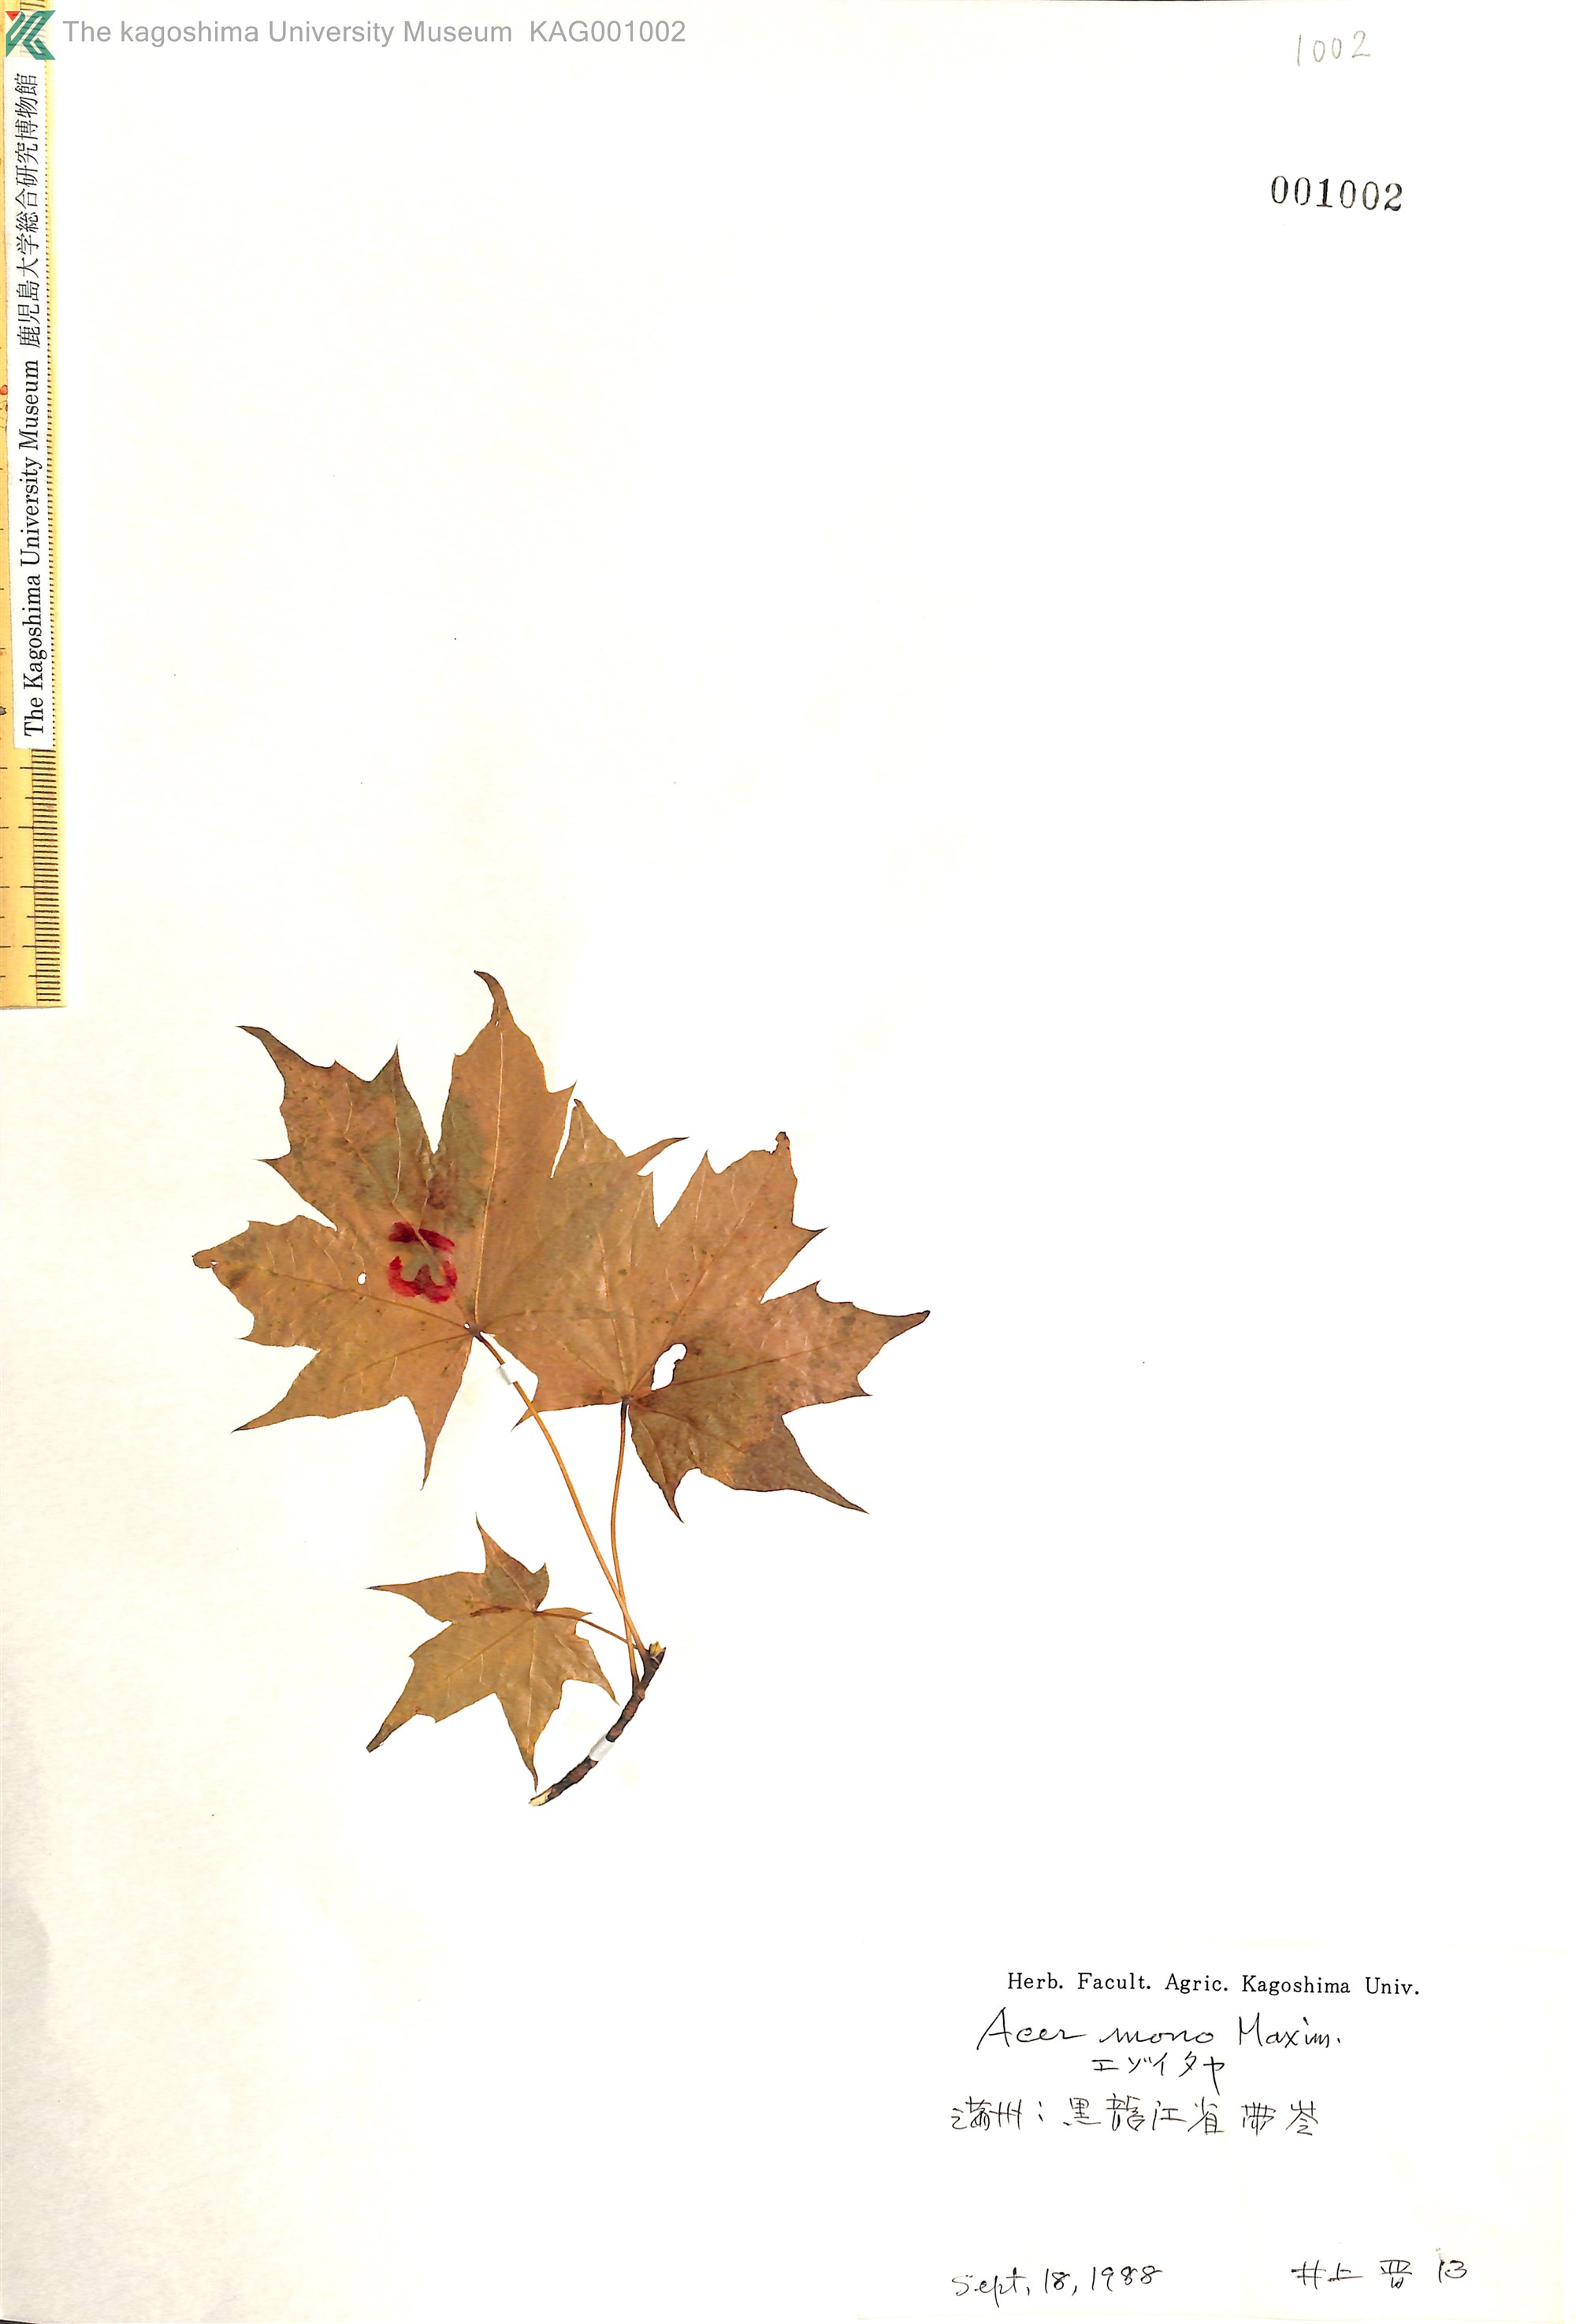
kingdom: Plantae
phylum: Tracheophyta
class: Magnoliopsida
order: Sapindales
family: Sapindaceae
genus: Acer
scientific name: Acer pictum
